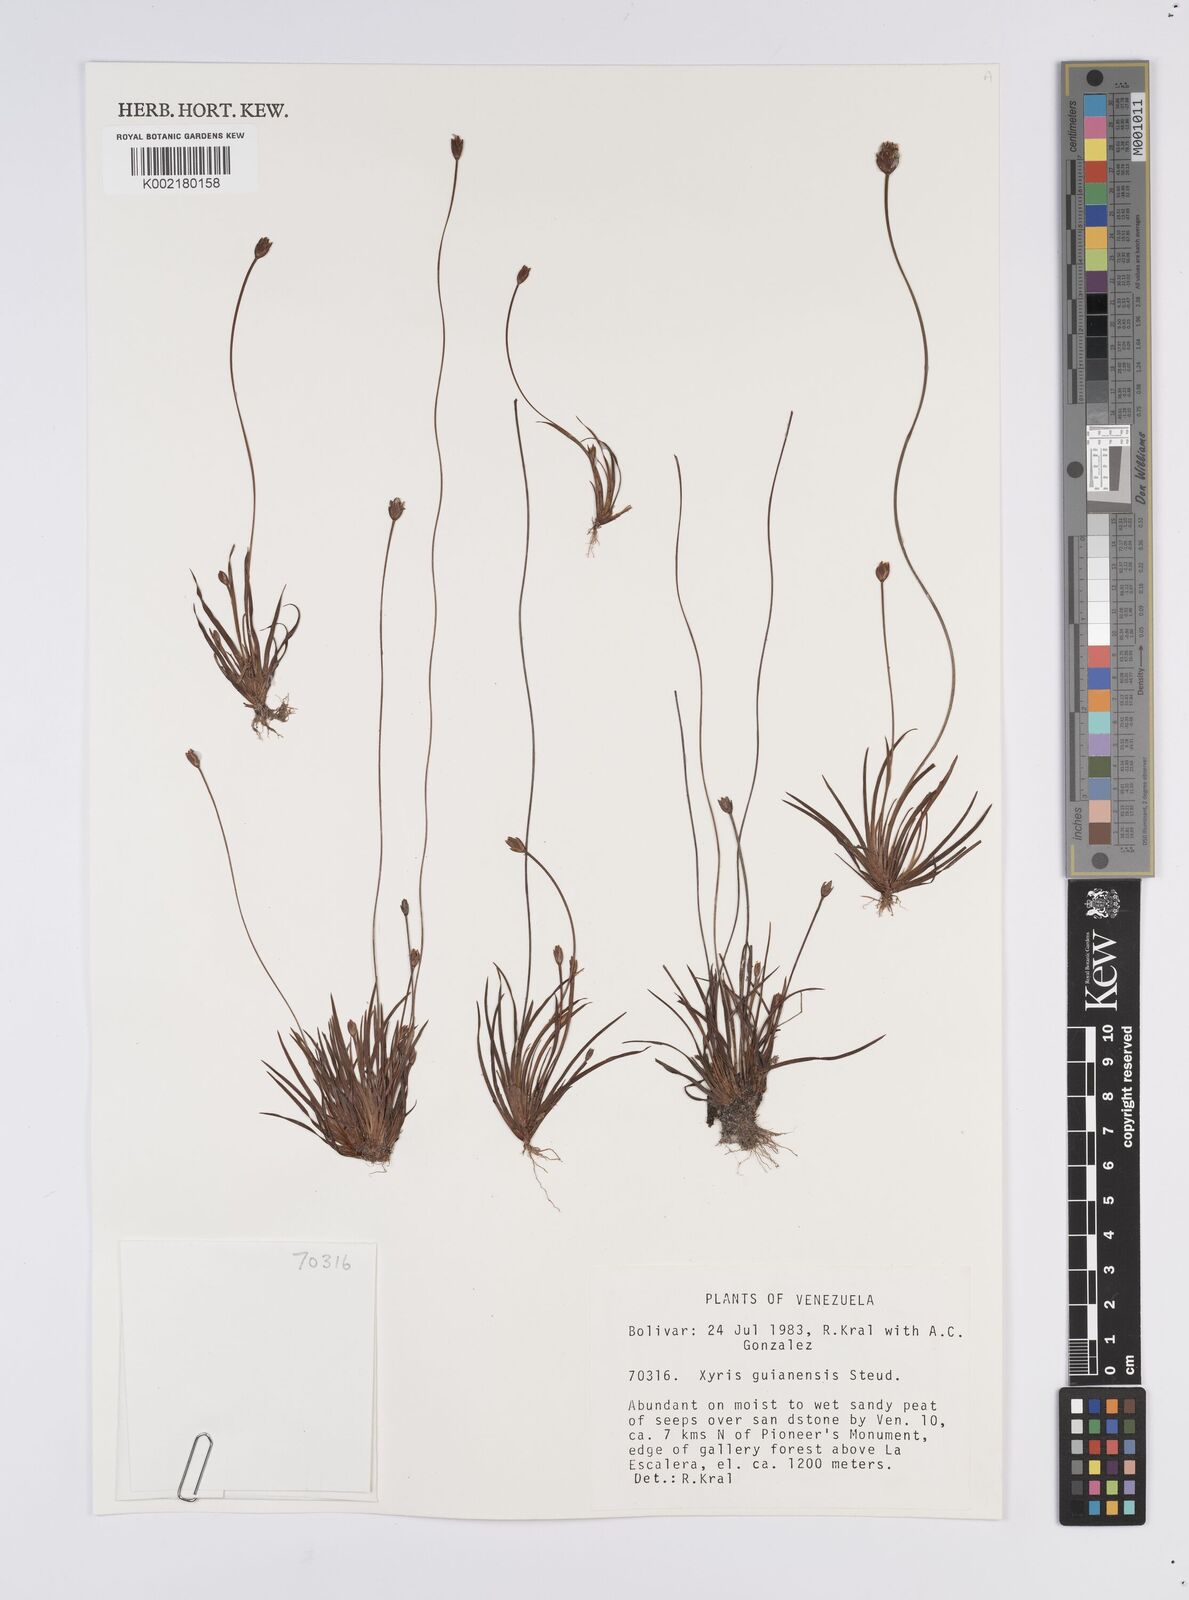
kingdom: Plantae
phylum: Tracheophyta
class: Liliopsida
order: Poales
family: Xyridaceae
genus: Xyris
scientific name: Xyris guianensis
